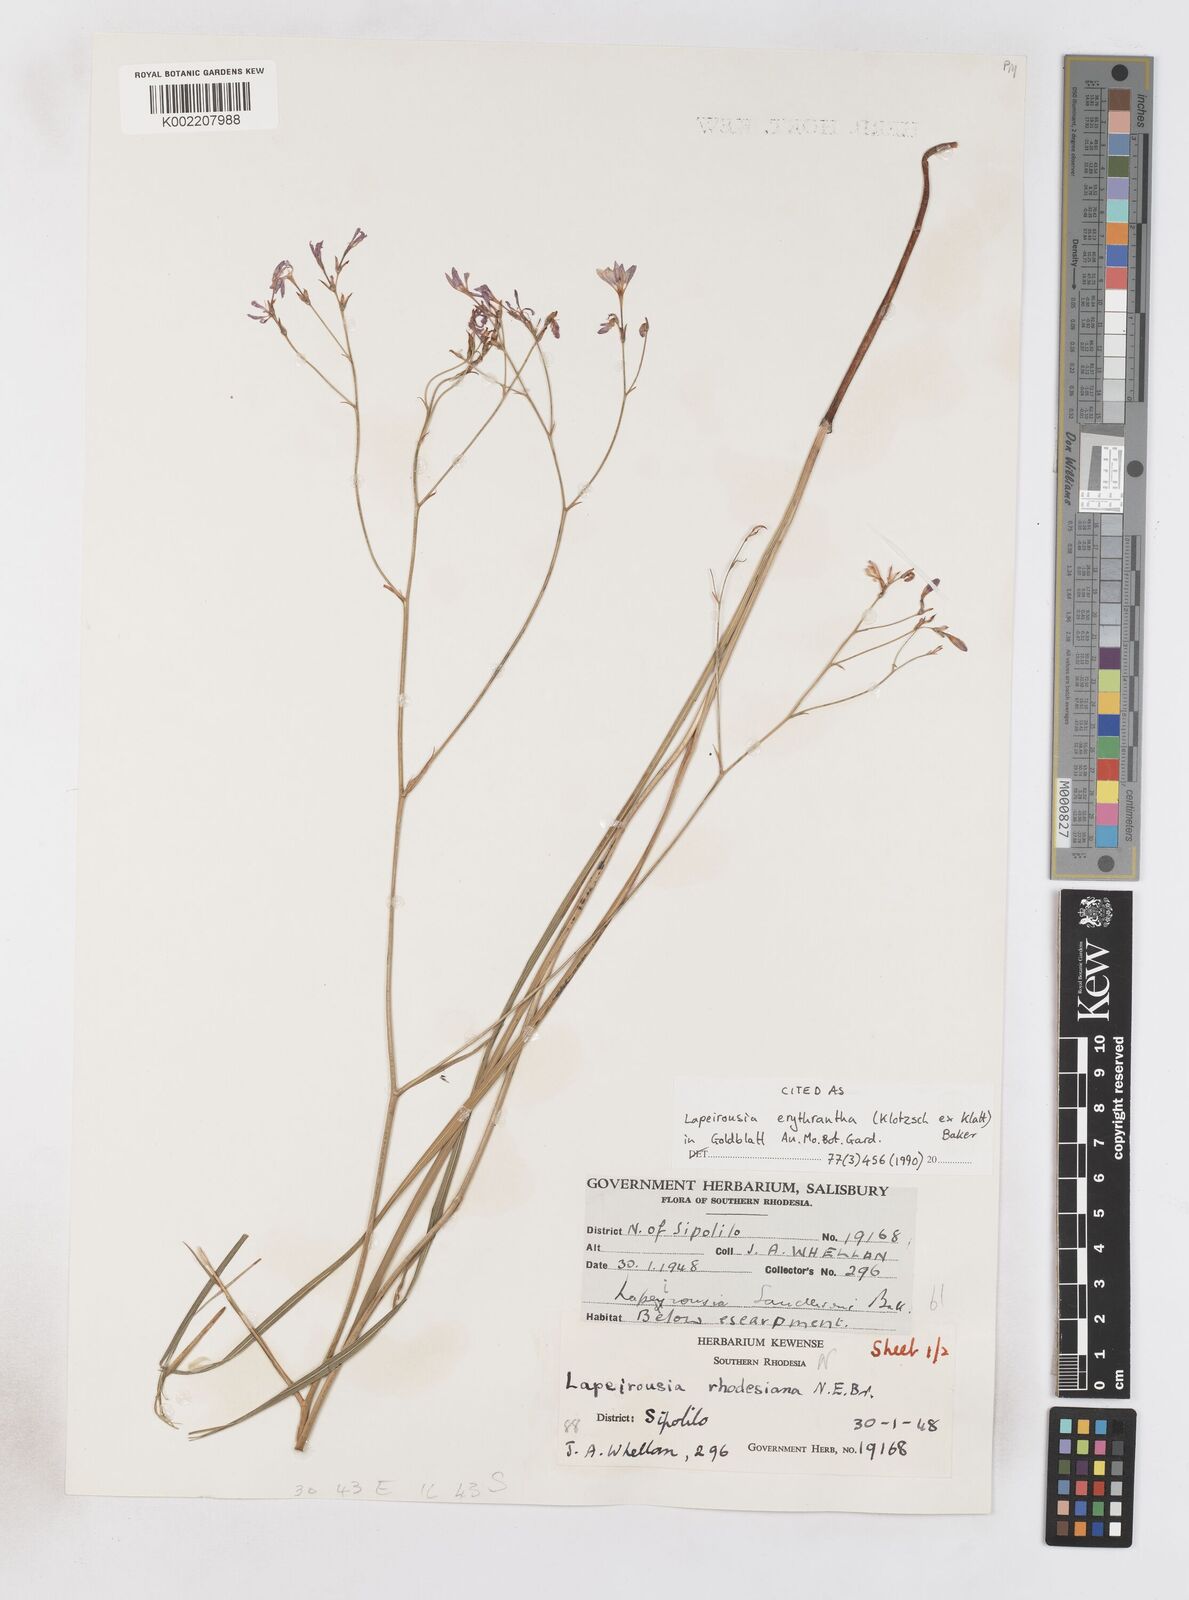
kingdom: Plantae
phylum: Tracheophyta
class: Liliopsida
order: Asparagales
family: Iridaceae
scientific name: Iridaceae
